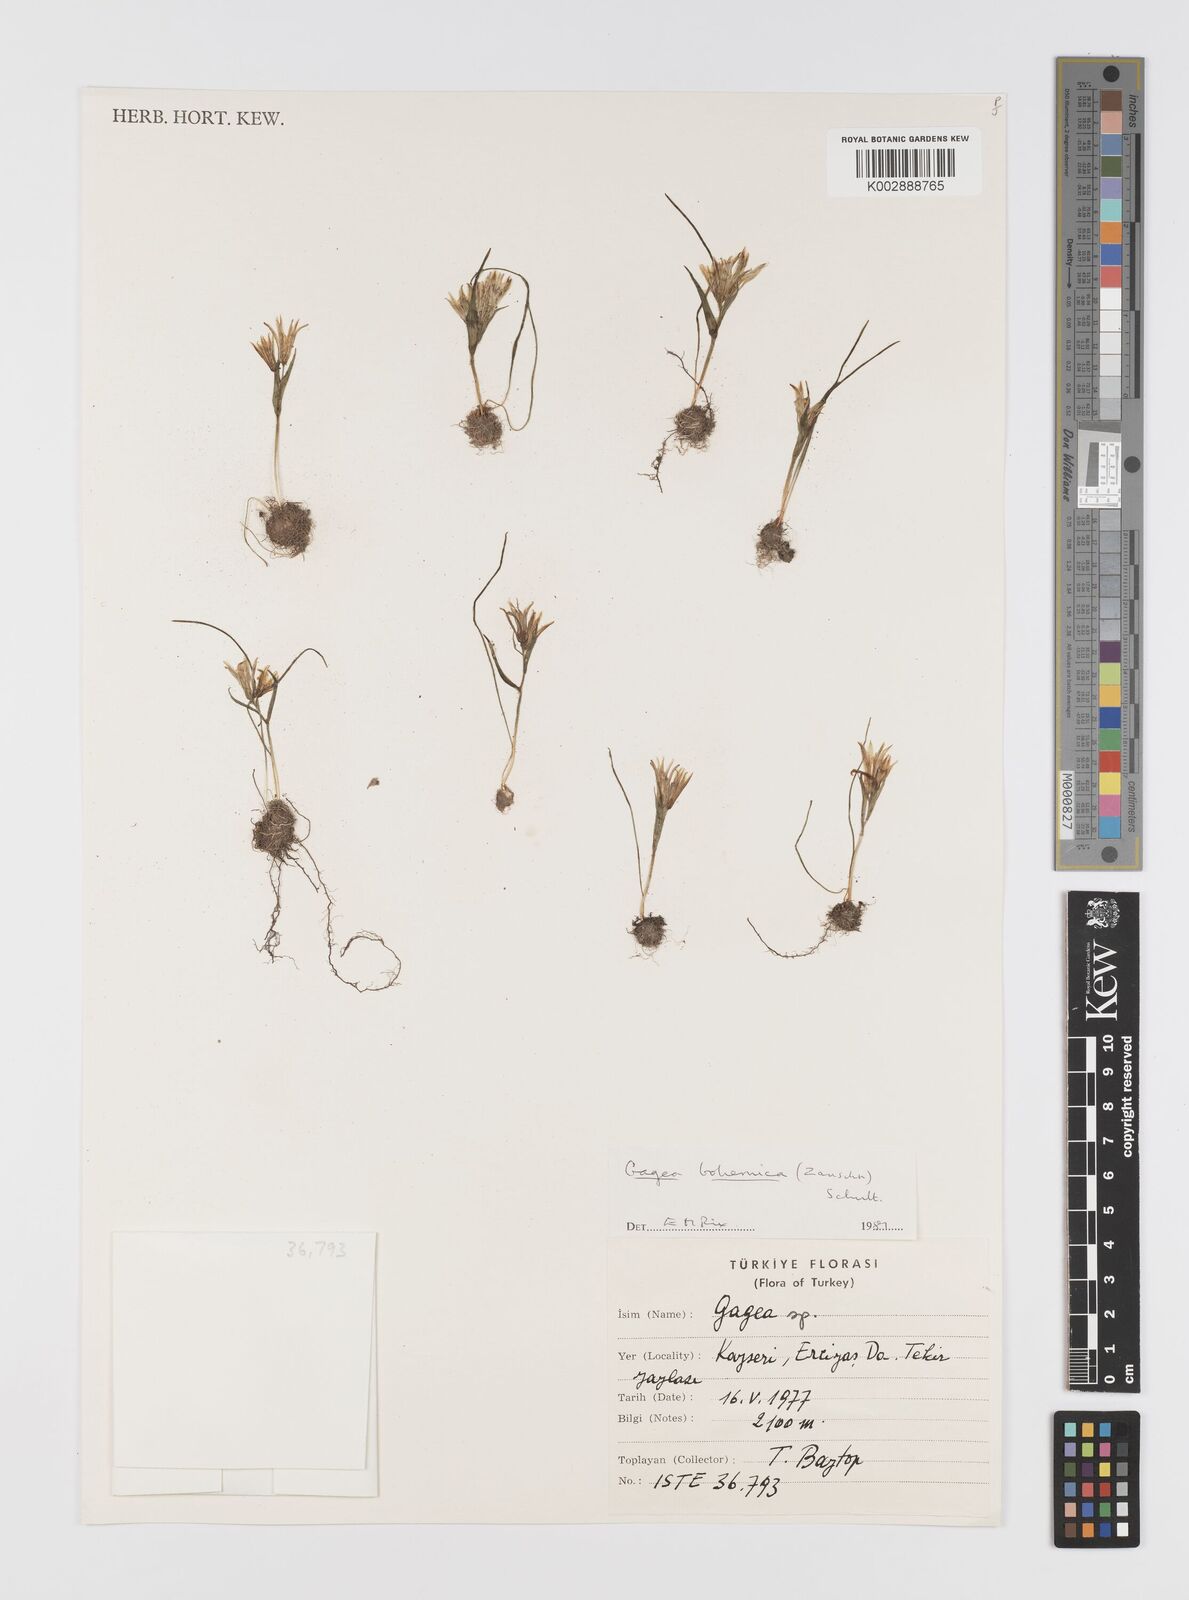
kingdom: Plantae
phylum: Tracheophyta
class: Liliopsida
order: Liliales
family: Liliaceae
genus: Gagea
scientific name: Gagea bohemica
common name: Early star-of-bethlehem
